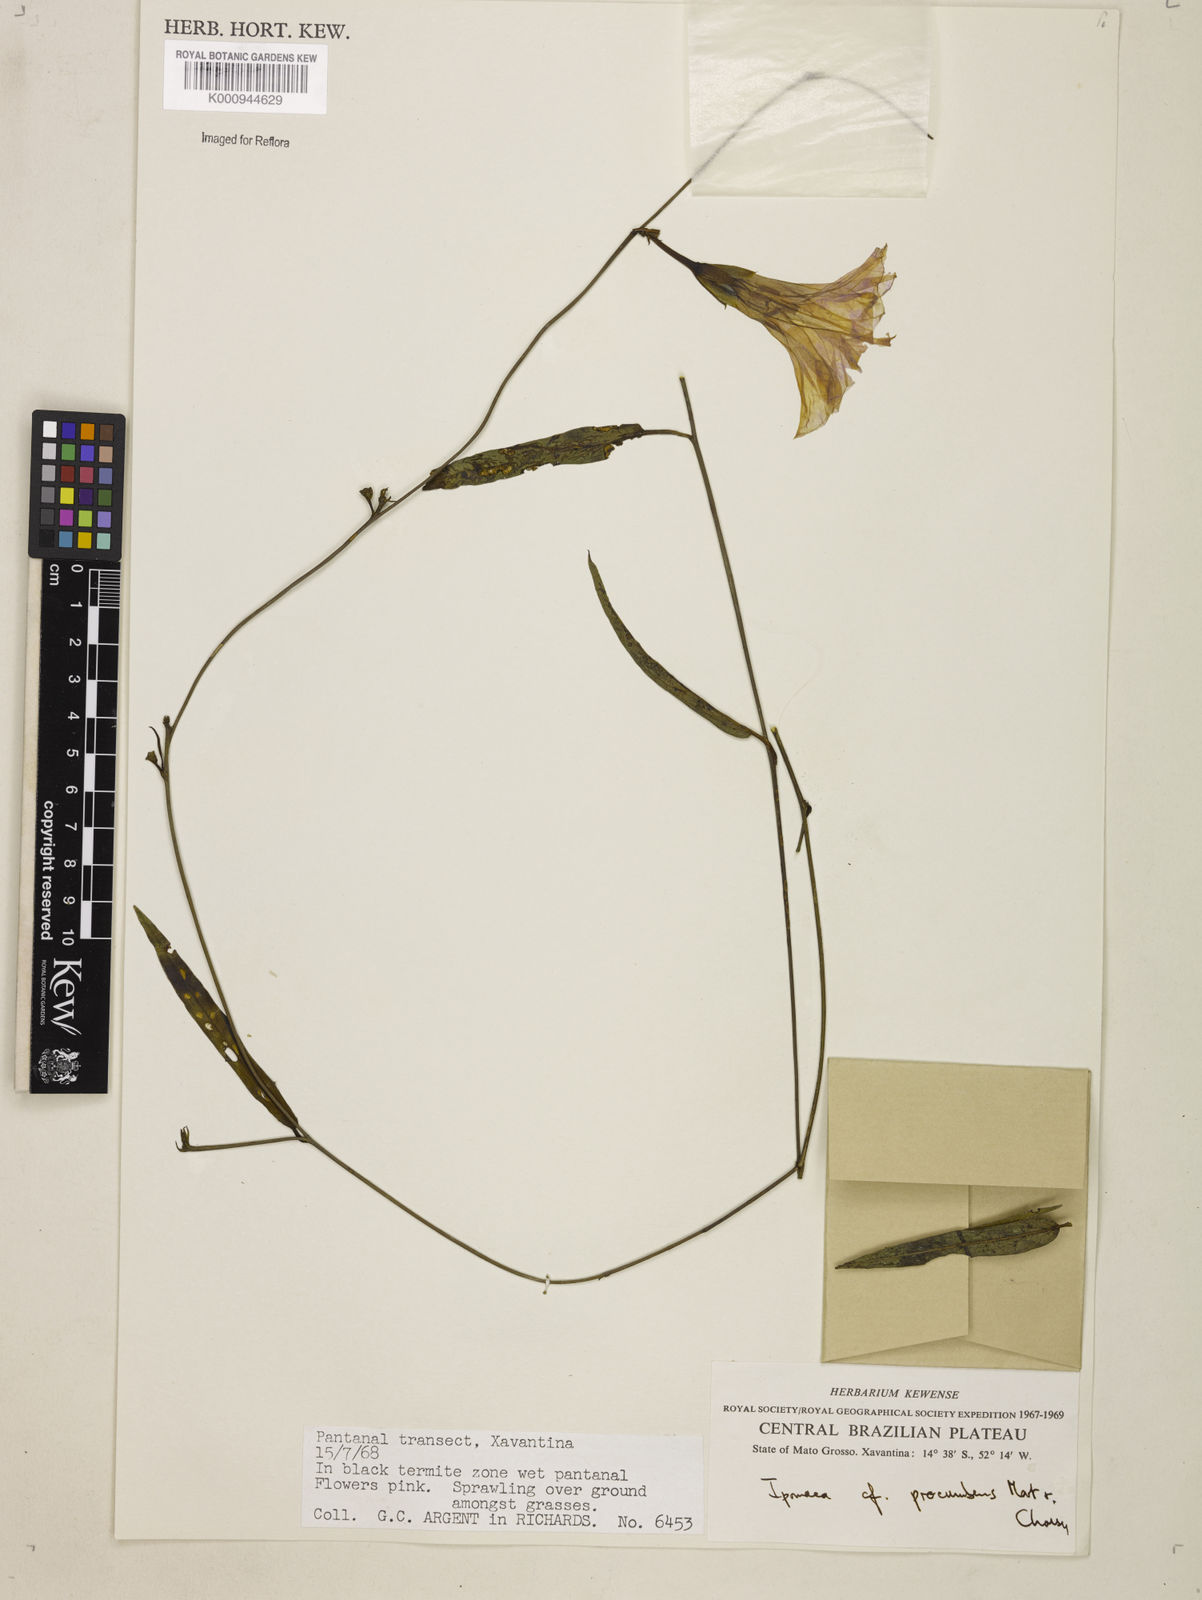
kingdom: Plantae
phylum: Tracheophyta
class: Magnoliopsida
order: Solanales
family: Convolvulaceae
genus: Ipomoea
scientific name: Ipomoea procumbens
